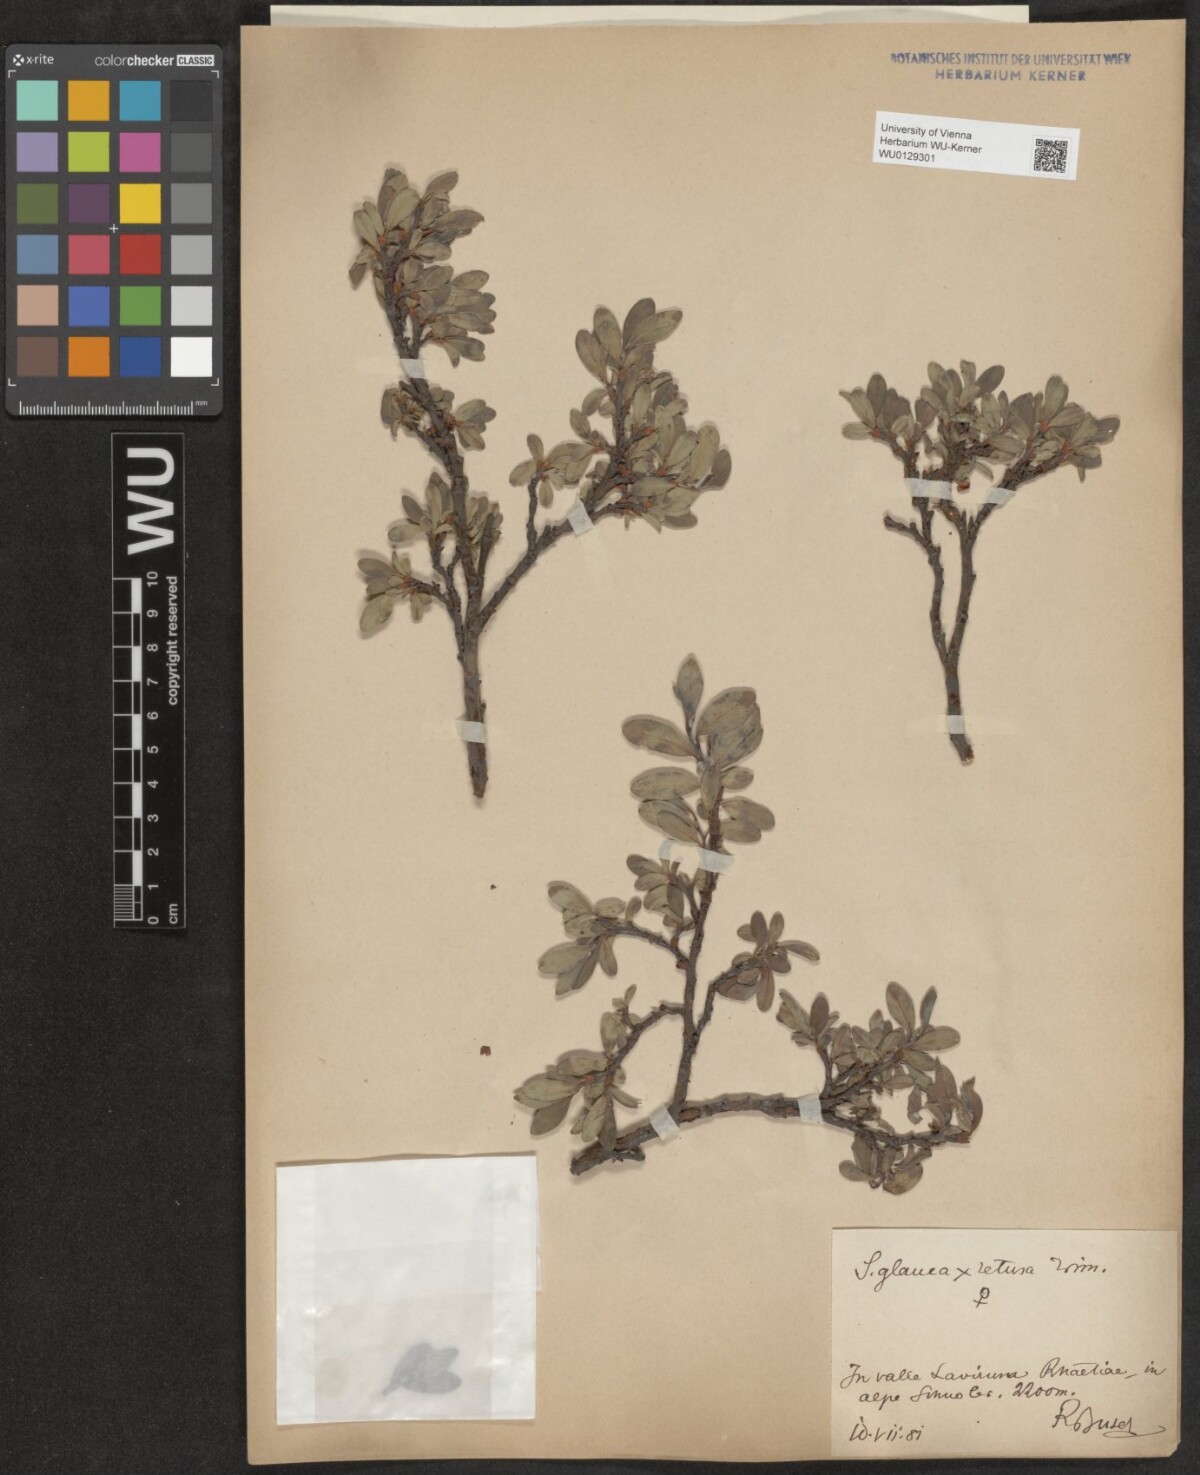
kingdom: Plantae
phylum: Tracheophyta
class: Magnoliopsida
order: Malpighiales
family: Salicaceae
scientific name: Salicaceae
